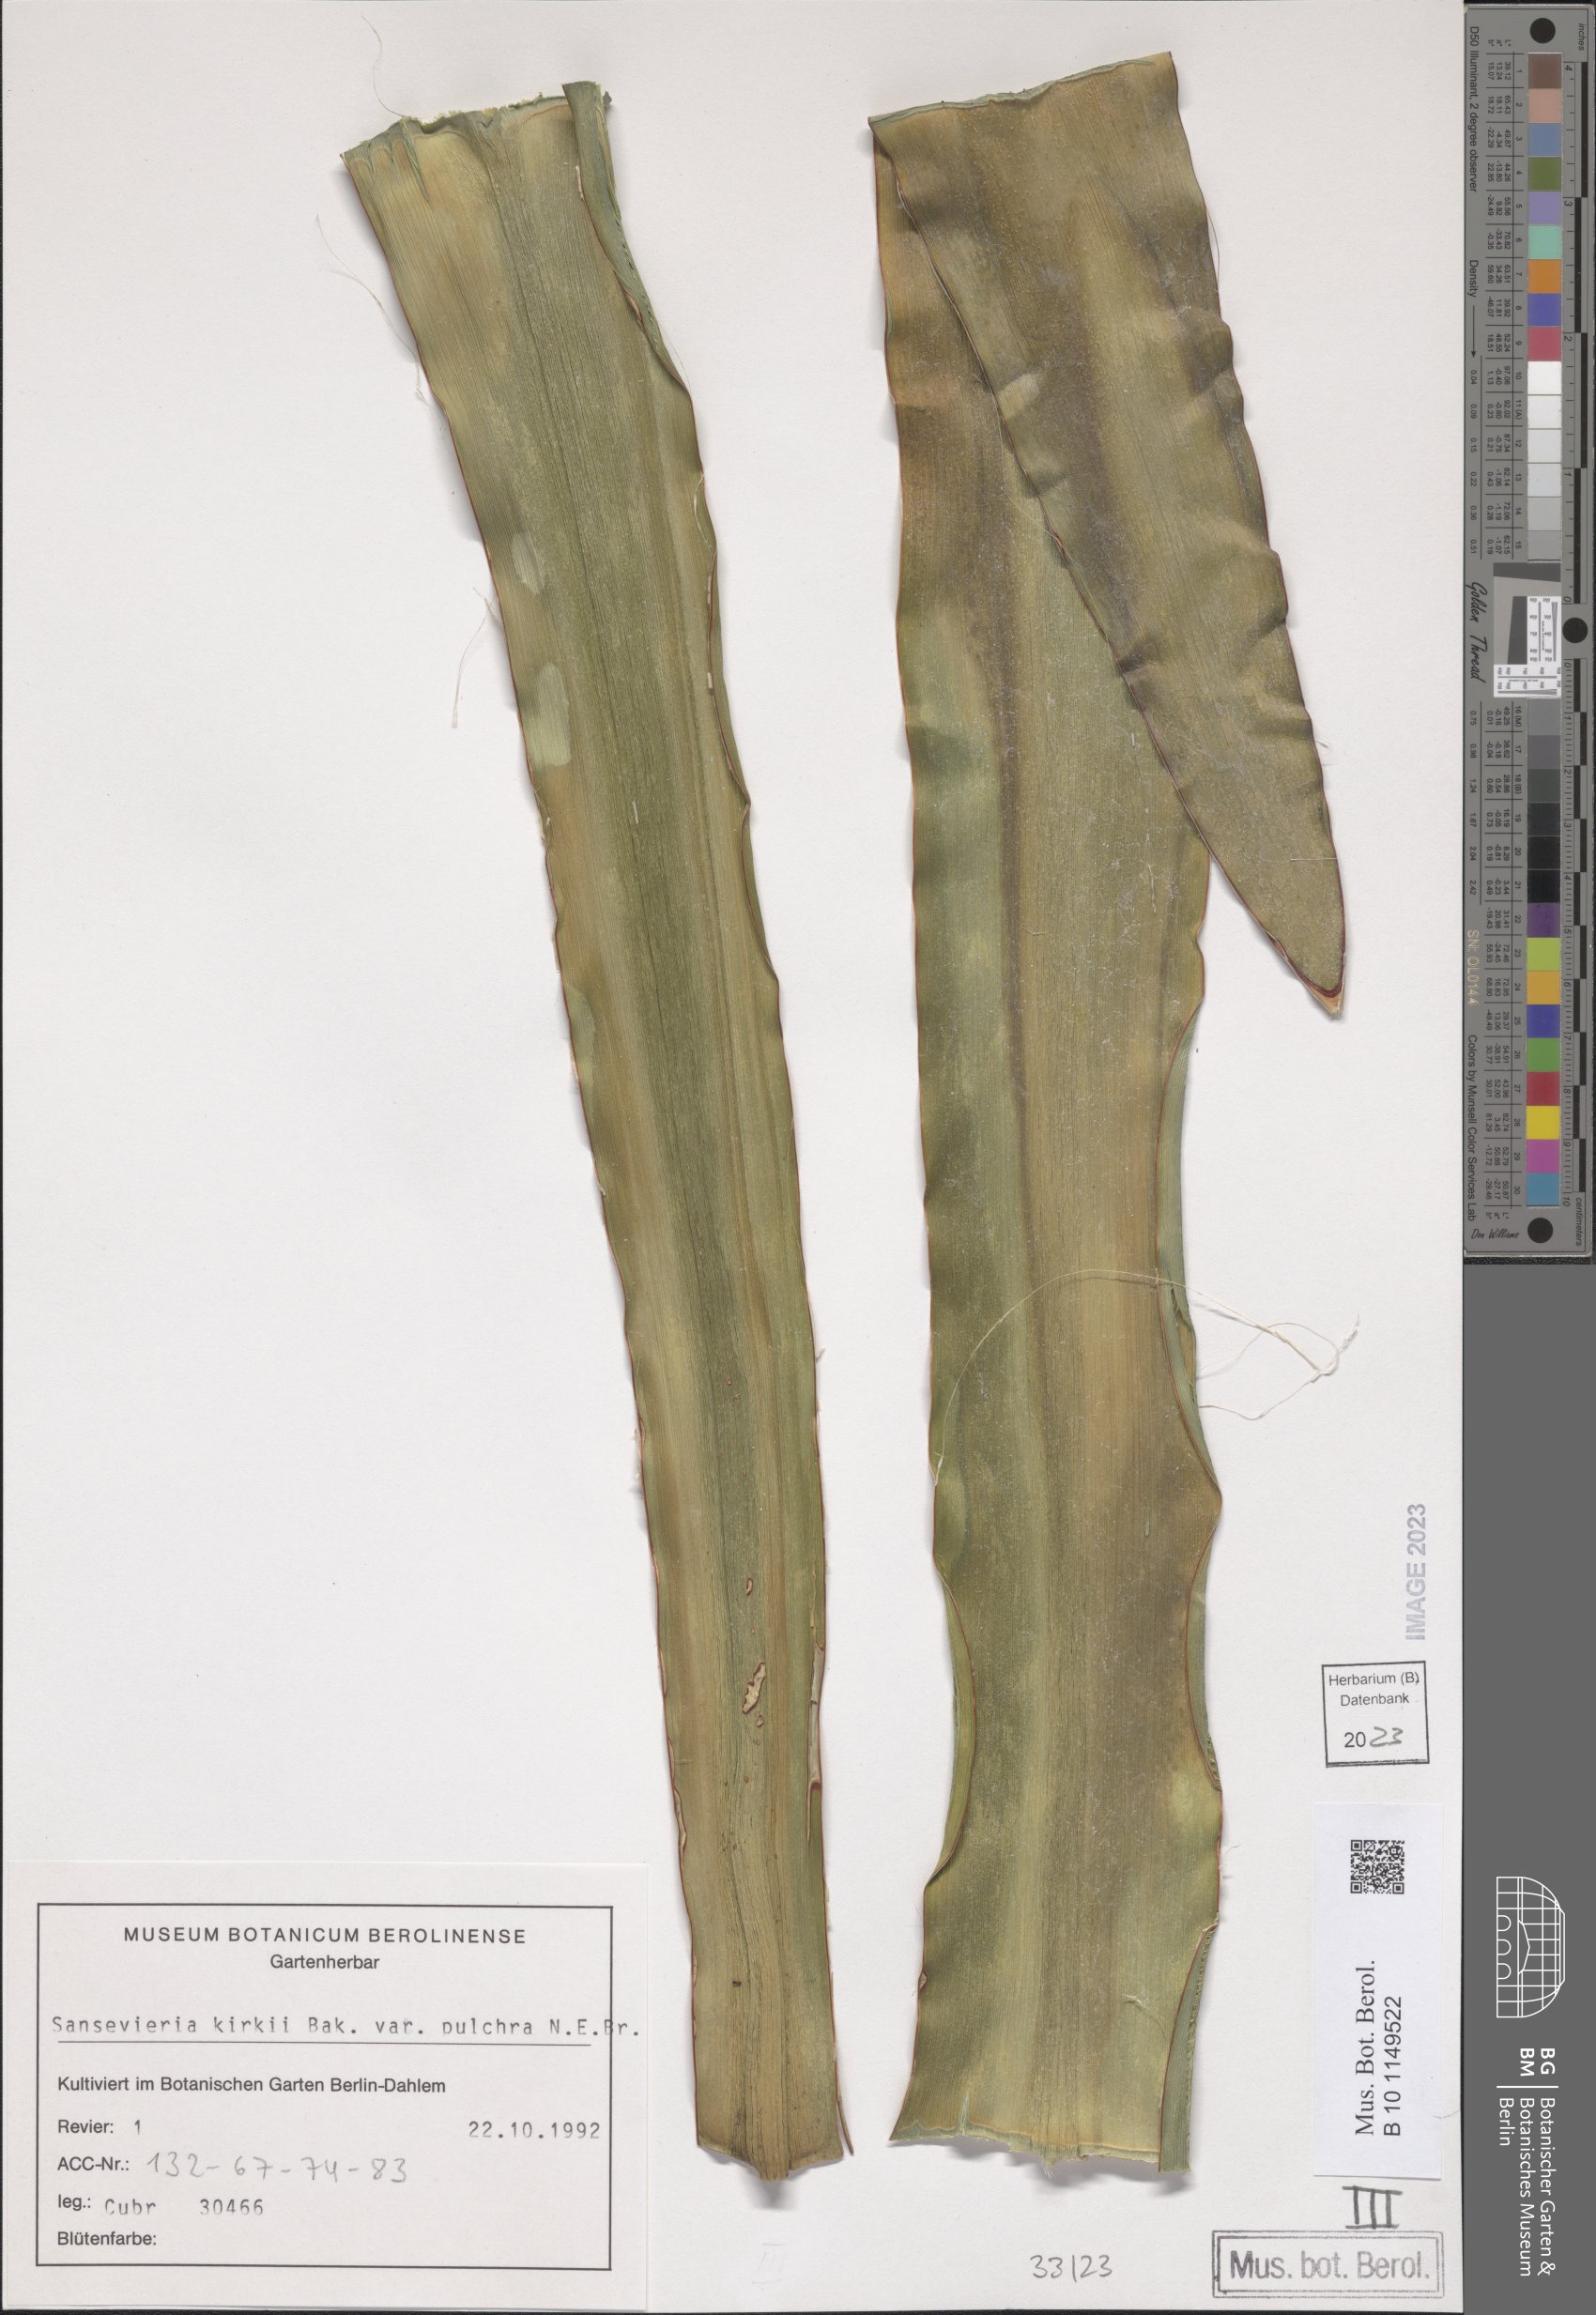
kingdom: Plantae
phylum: Tracheophyta
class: Liliopsida
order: Asparagales
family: Asparagaceae
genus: Dracaena
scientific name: Dracaena pethera
